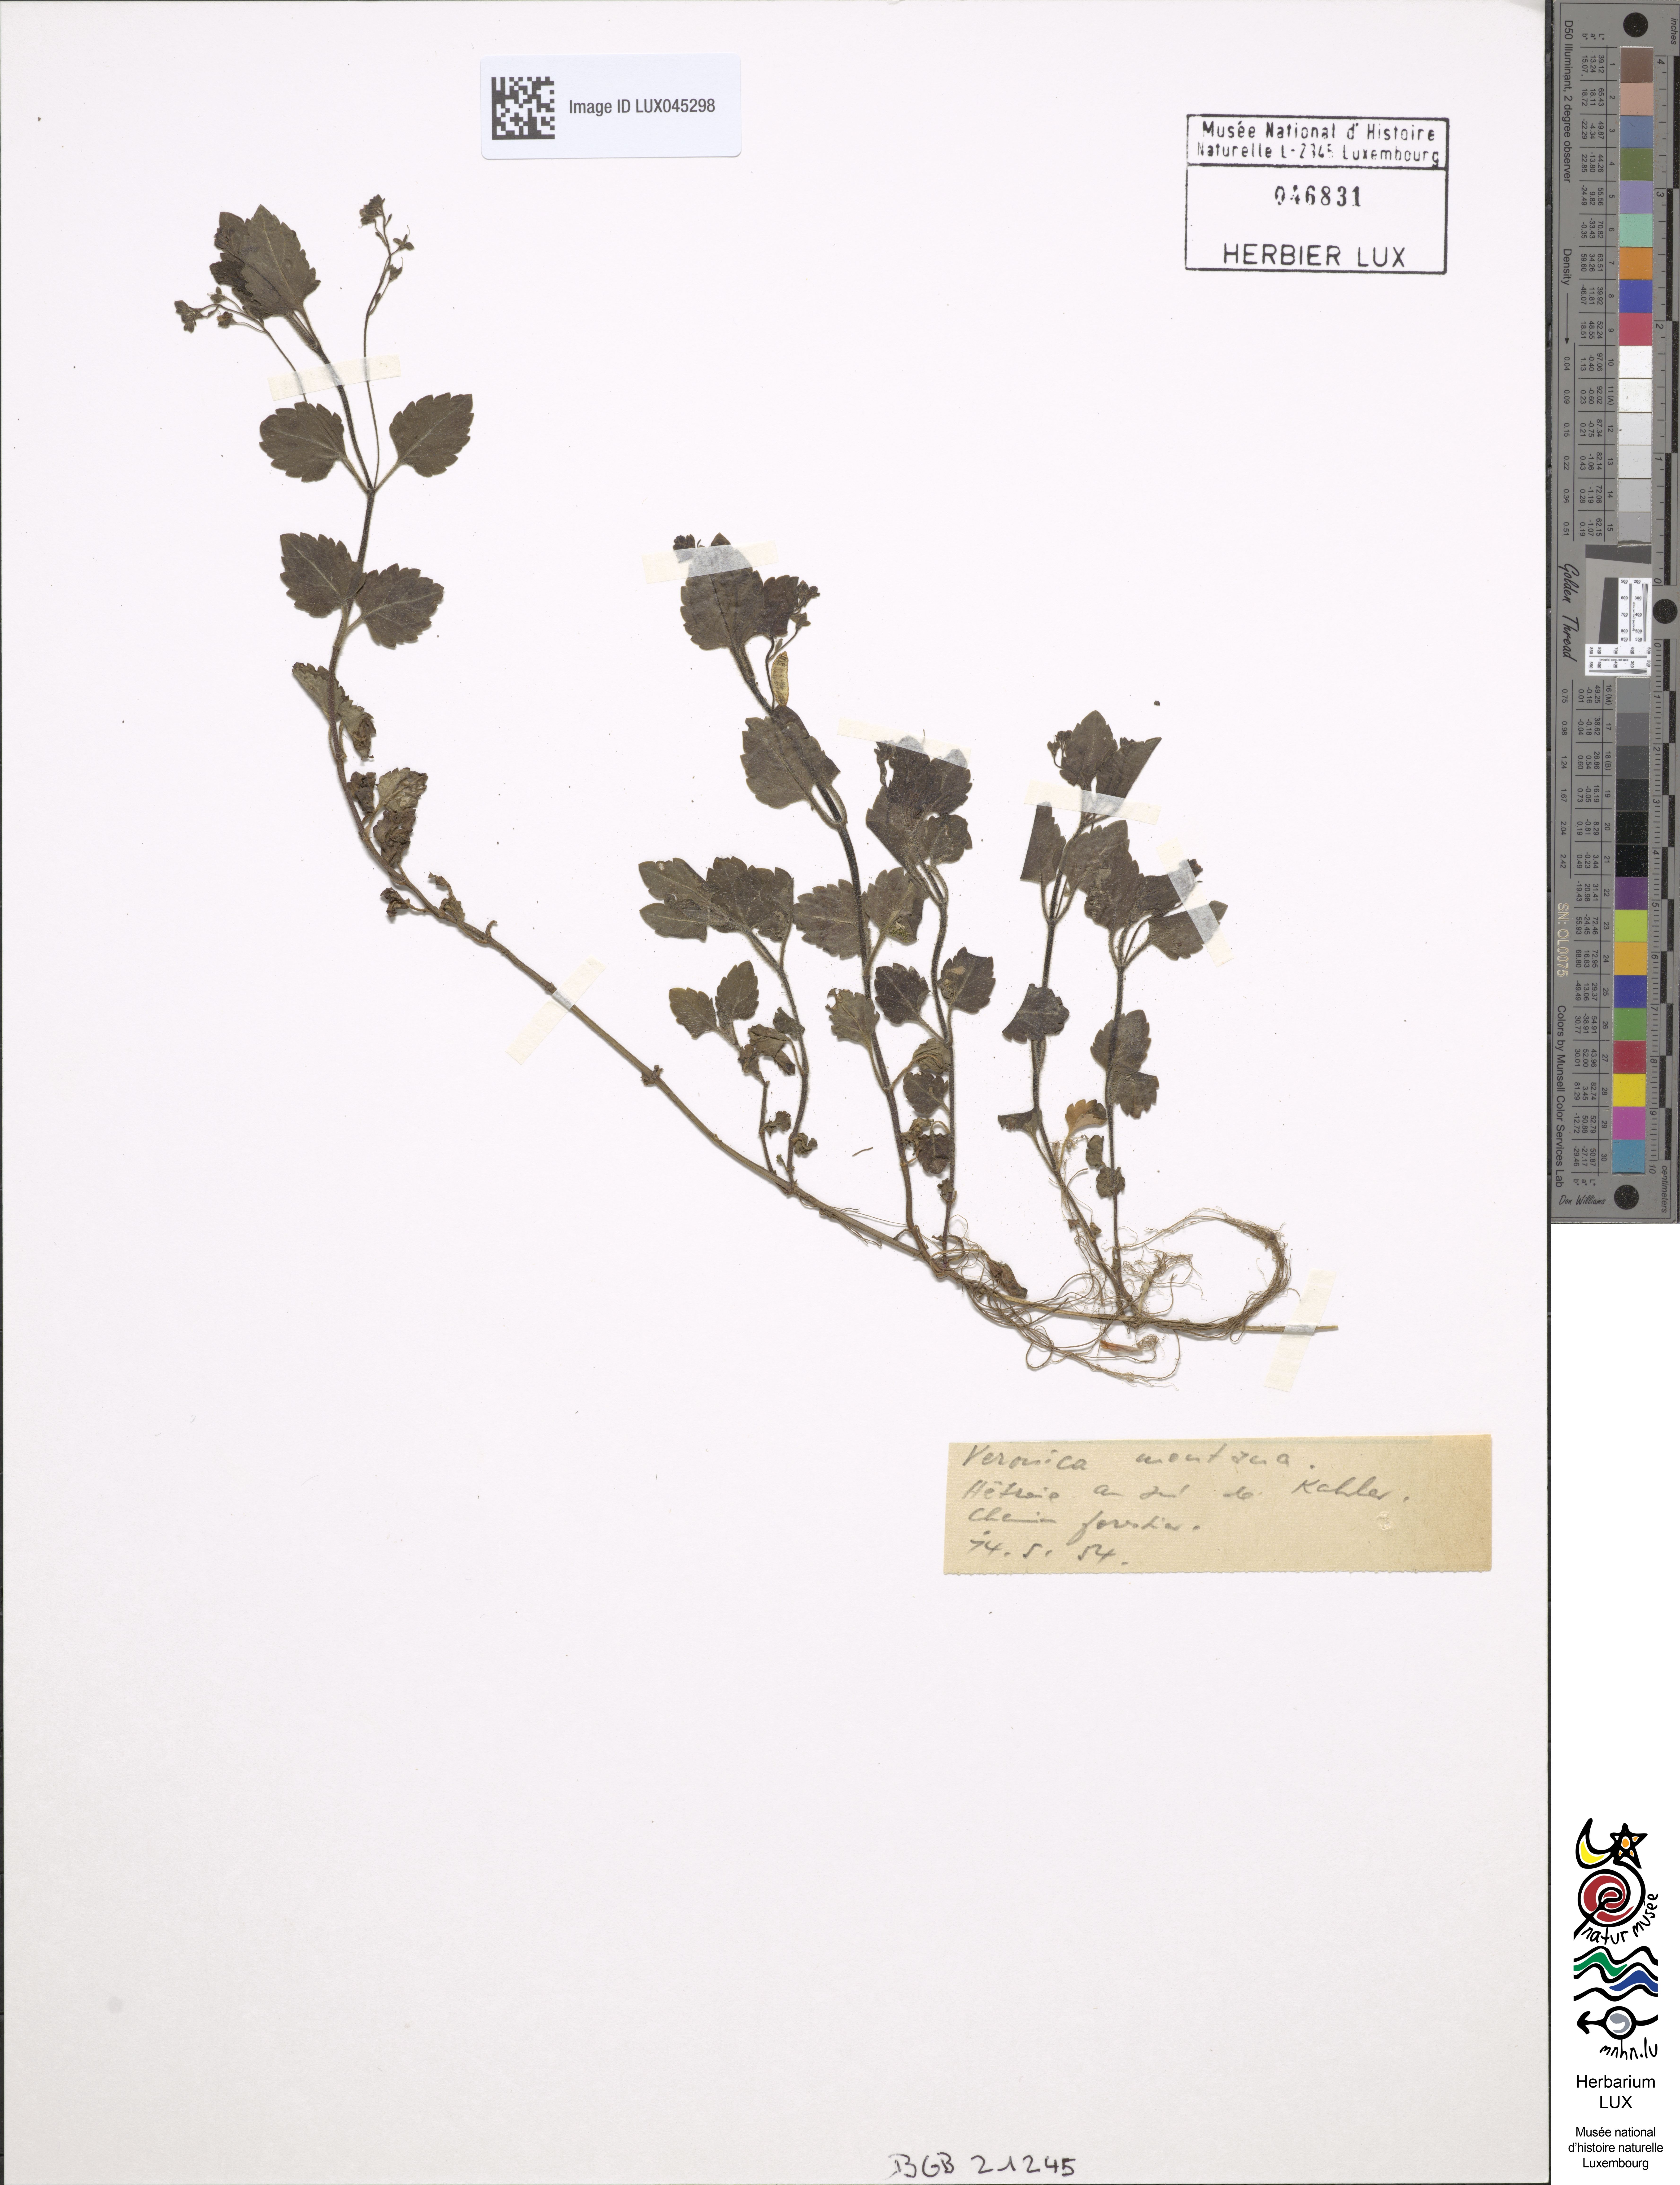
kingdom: Plantae
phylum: Tracheophyta
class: Magnoliopsida
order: Lamiales
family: Plantaginaceae
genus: Veronica
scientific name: Veronica montana
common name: Wood speedwell
